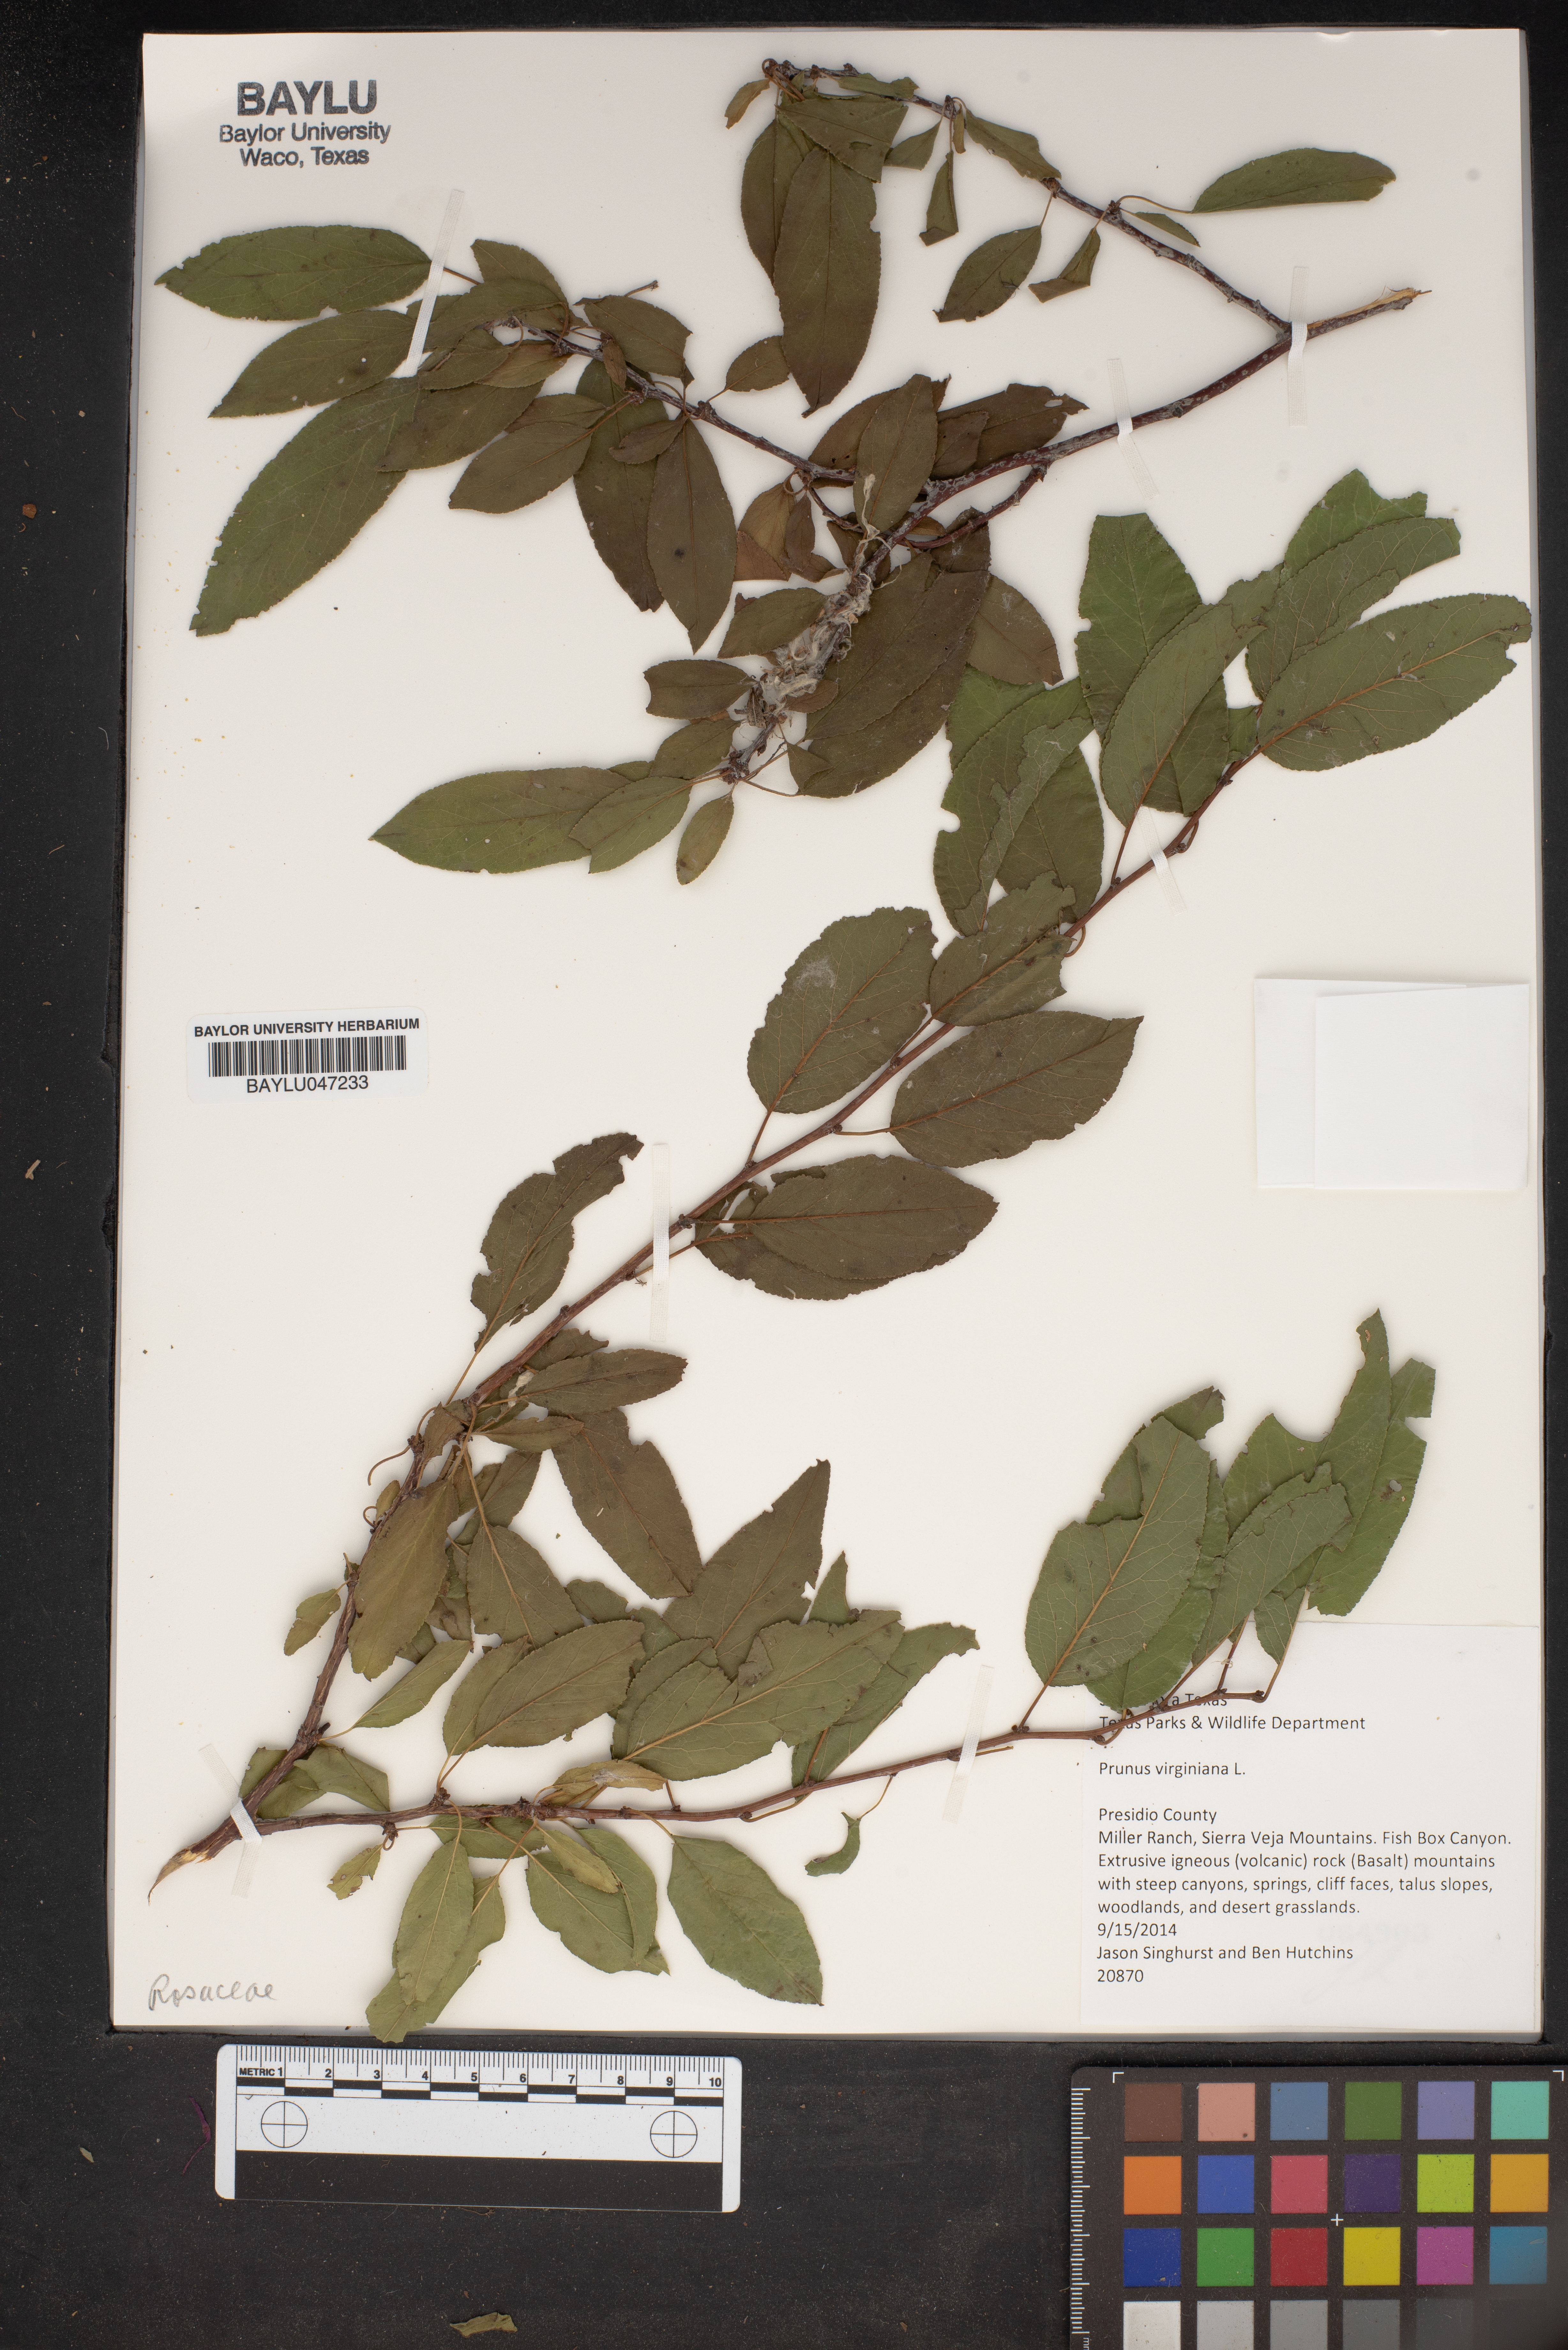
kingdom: Plantae
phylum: Tracheophyta
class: Magnoliopsida
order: Rosales
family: Rosaceae
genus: Prunus
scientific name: Prunus virginiana
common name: Chokecherry
